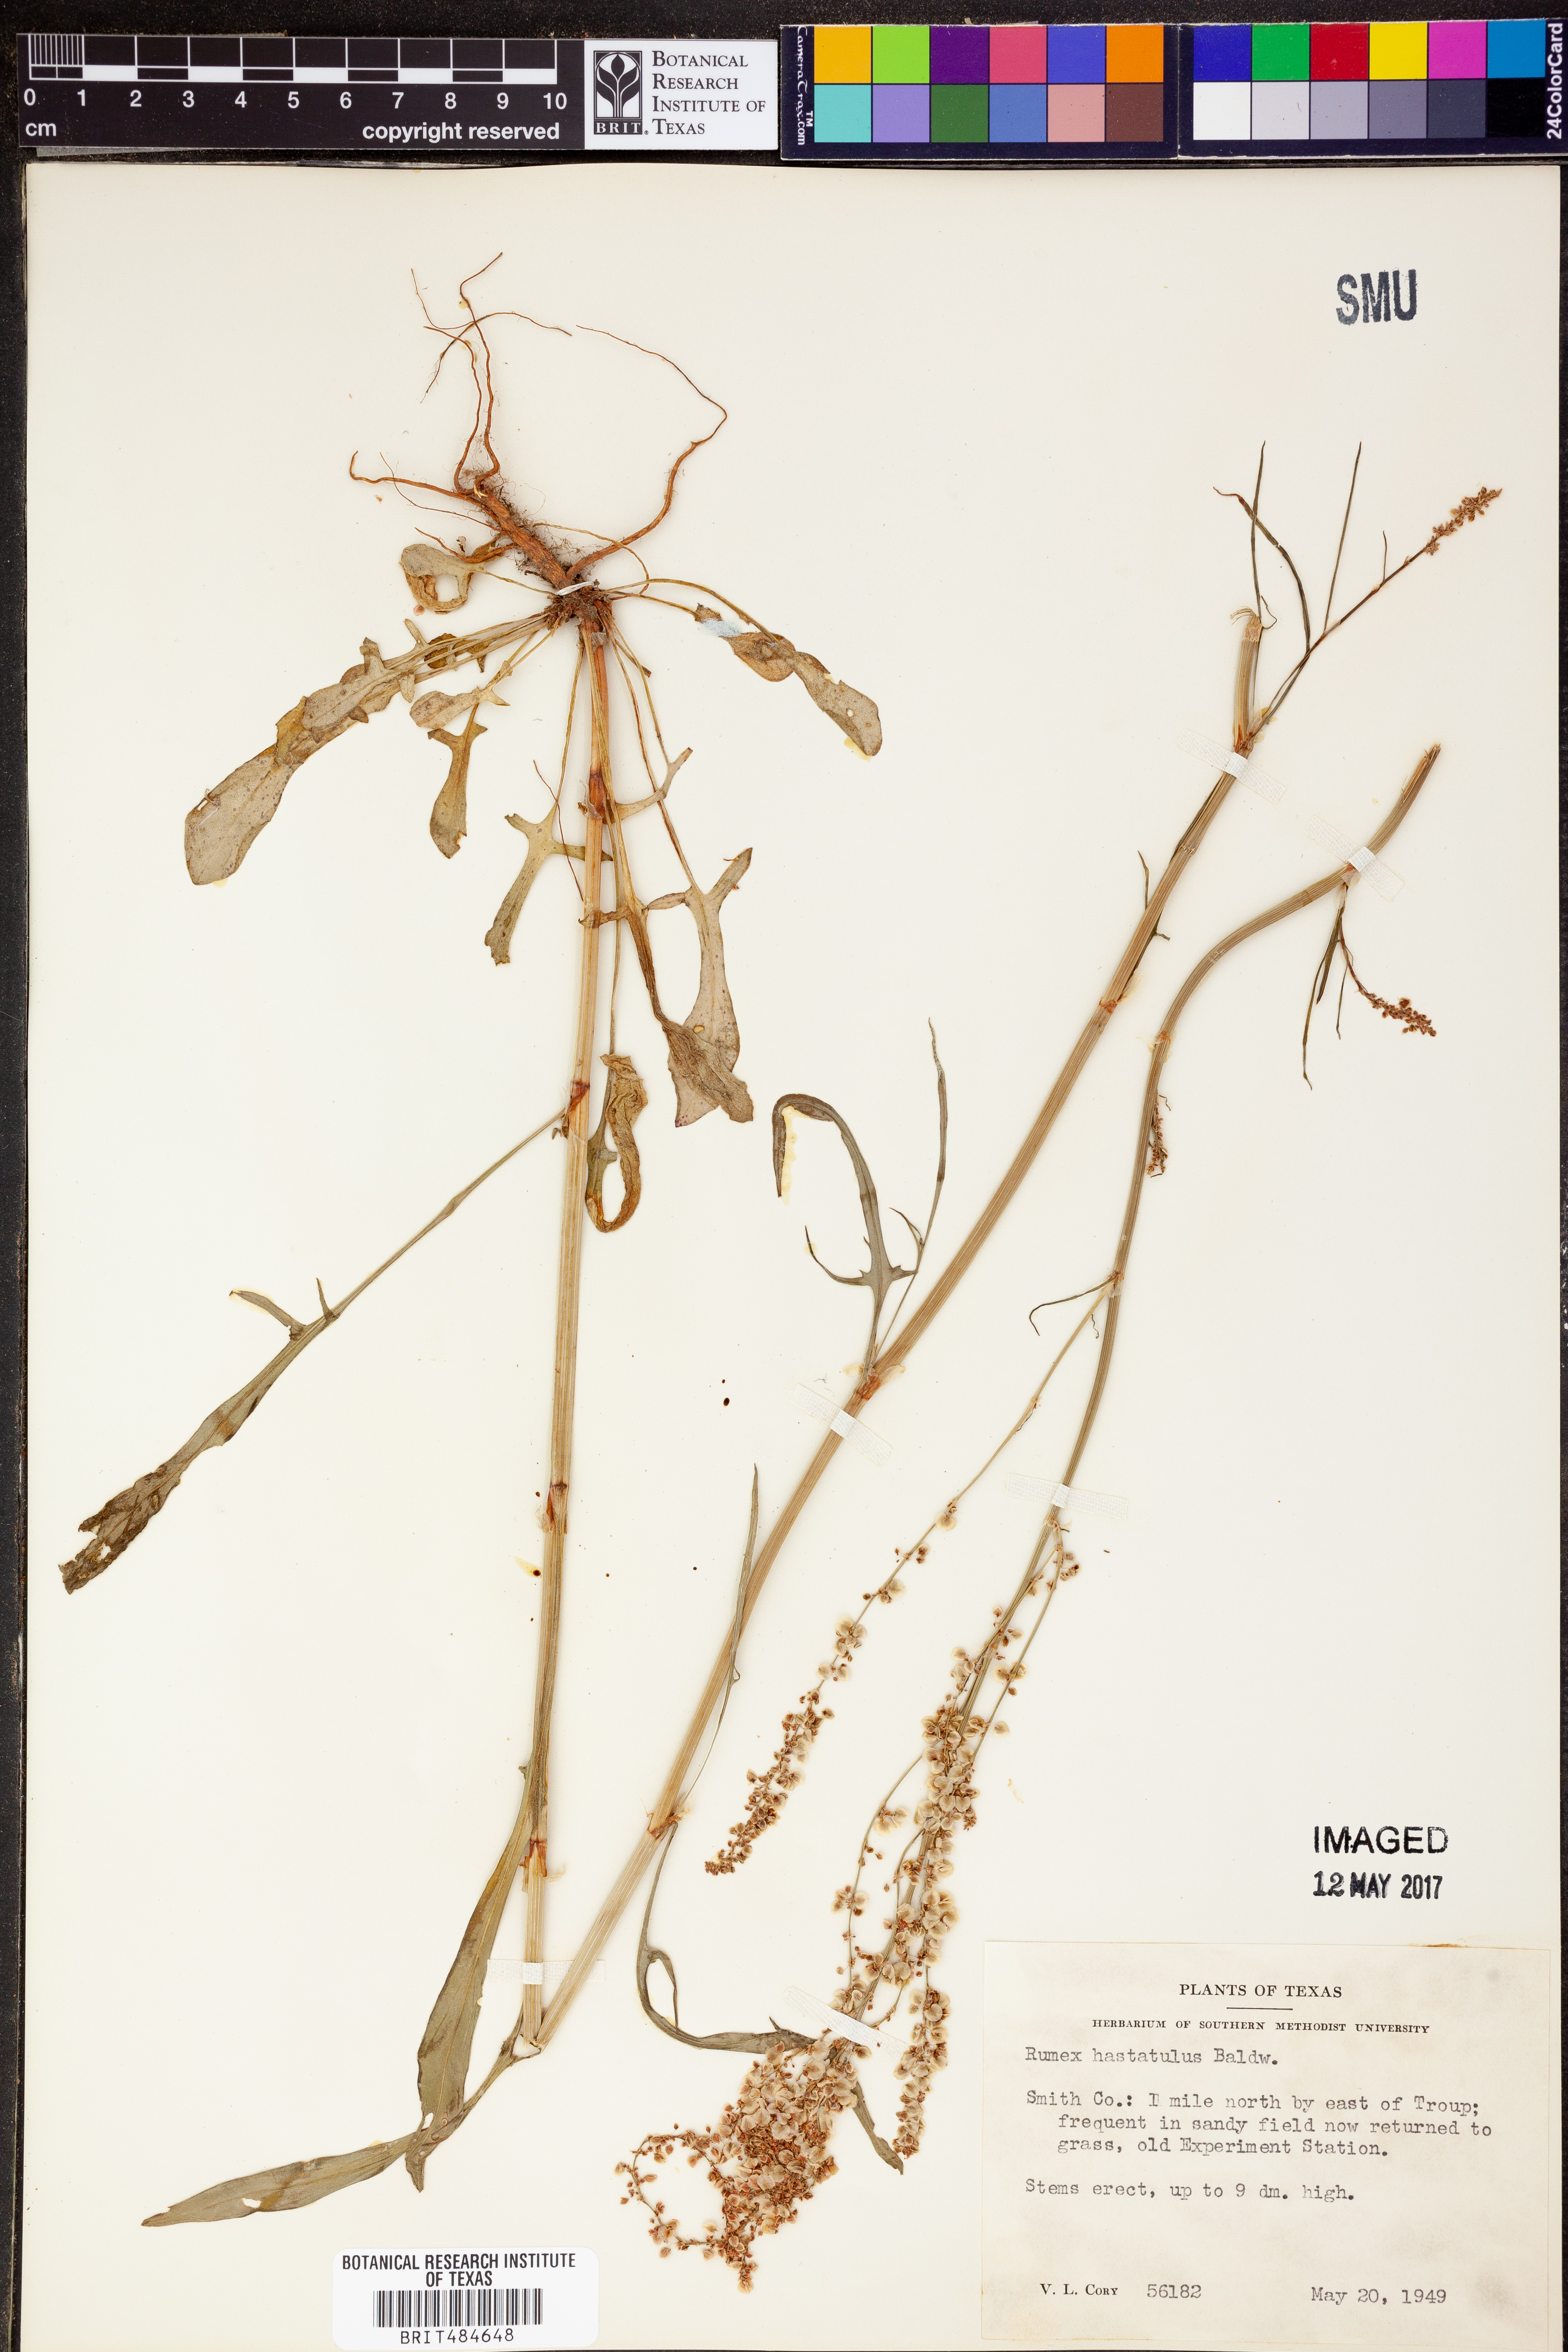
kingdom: Plantae
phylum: Tracheophyta
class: Magnoliopsida
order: Caryophyllales
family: Polygonaceae
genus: Rumex
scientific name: Rumex hastatulus
